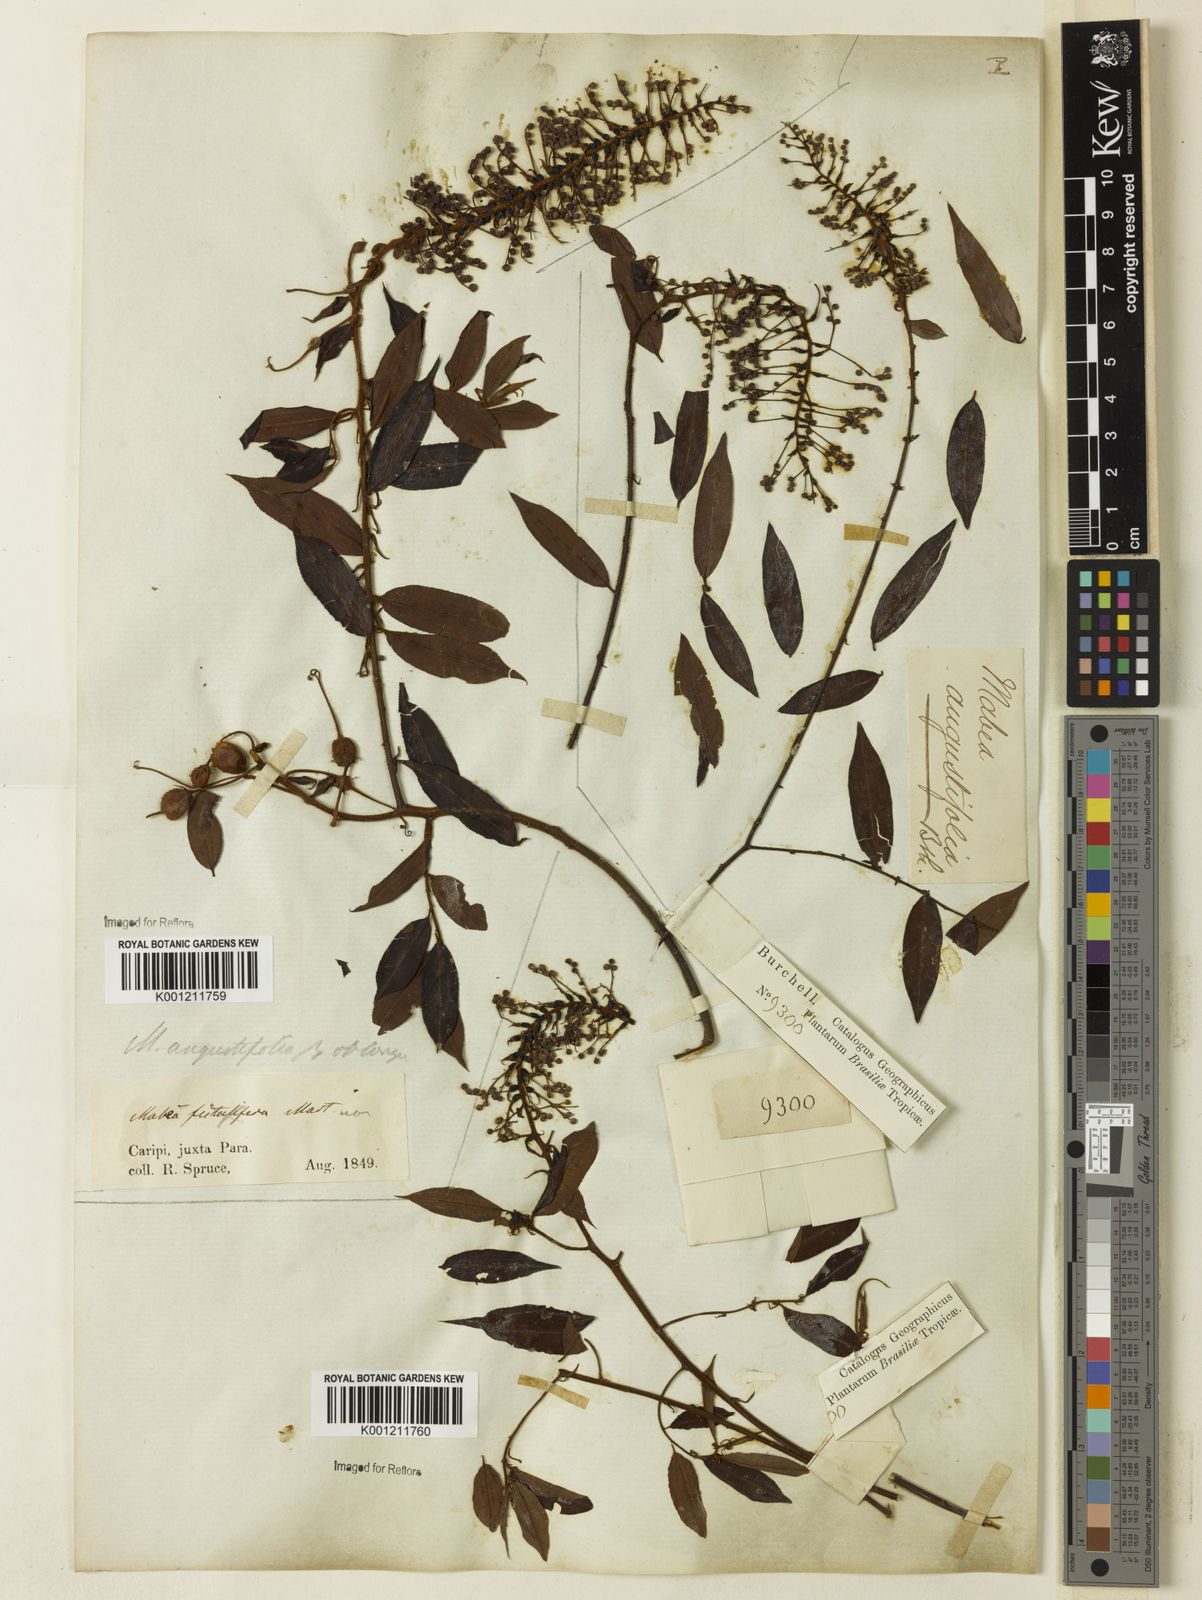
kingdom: Plantae
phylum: Tracheophyta
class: Magnoliopsida
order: Malpighiales
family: Euphorbiaceae
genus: Mabea
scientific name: Mabea angustifolia
